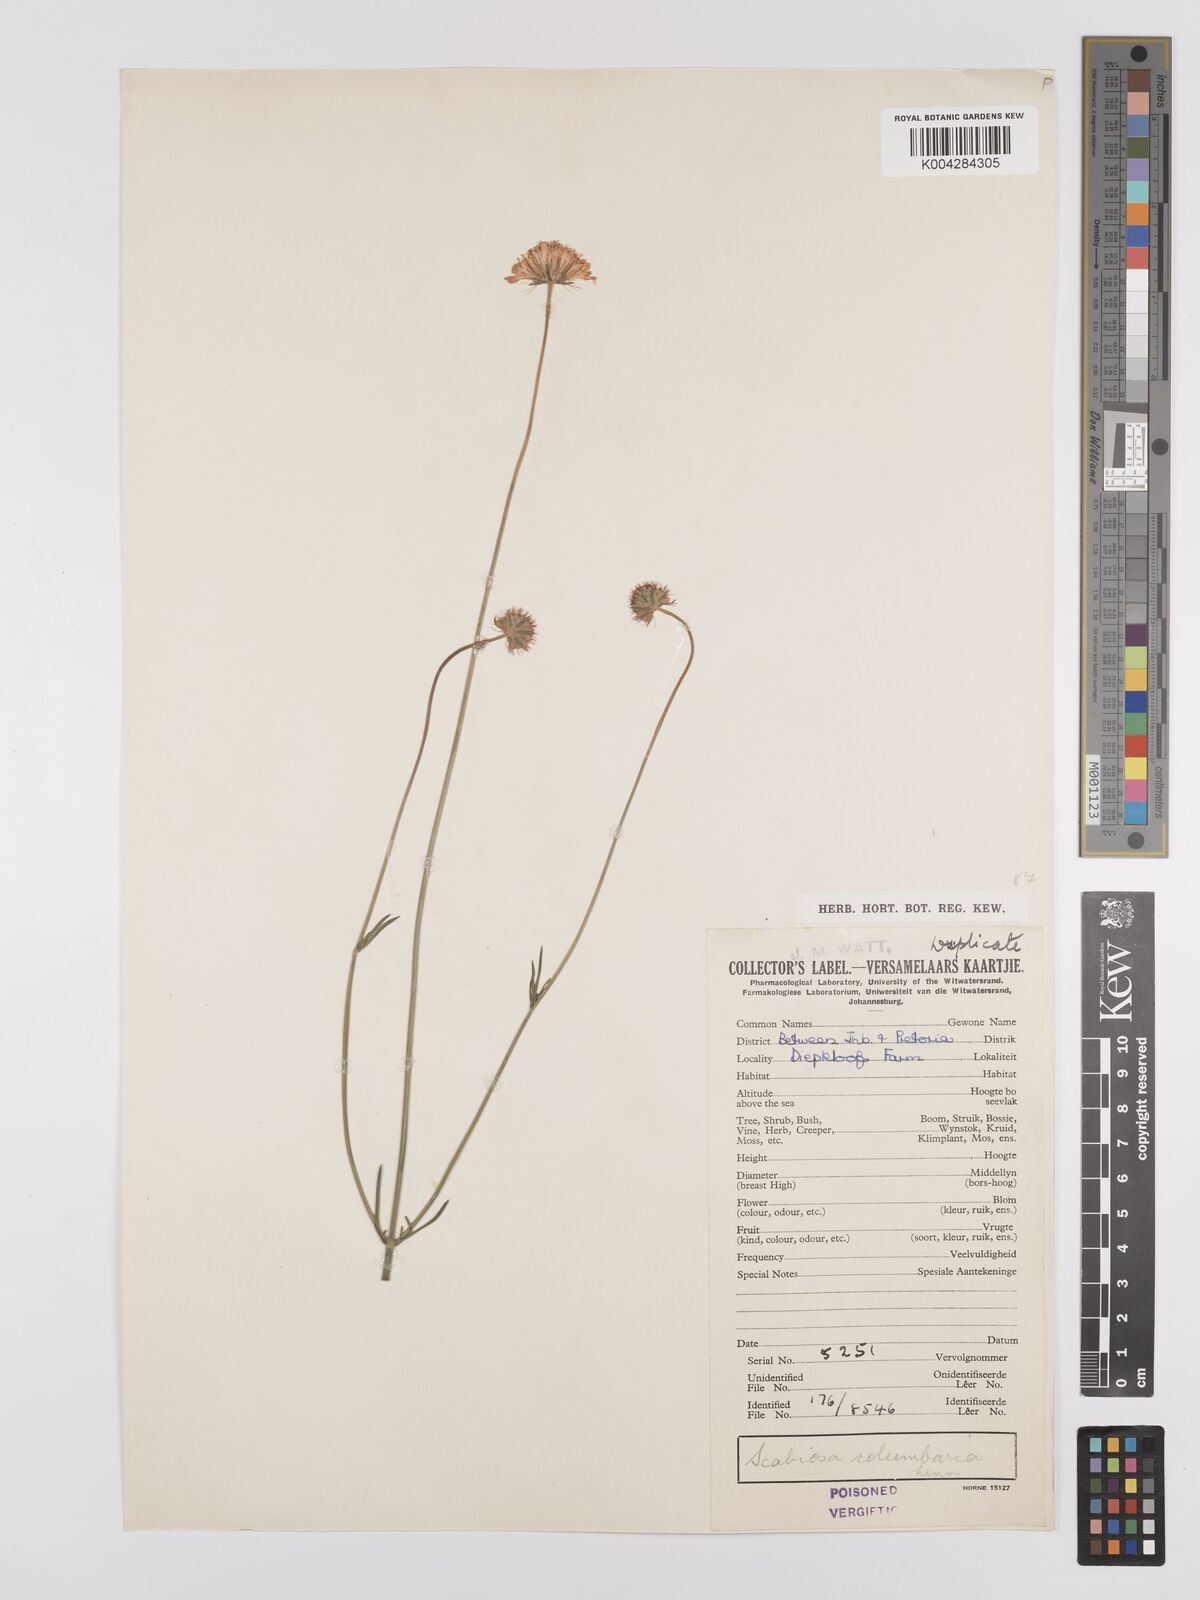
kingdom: Plantae
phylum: Tracheophyta
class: Magnoliopsida
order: Dipsacales
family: Caprifoliaceae
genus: Scabiosa
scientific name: Scabiosa austroafricana
